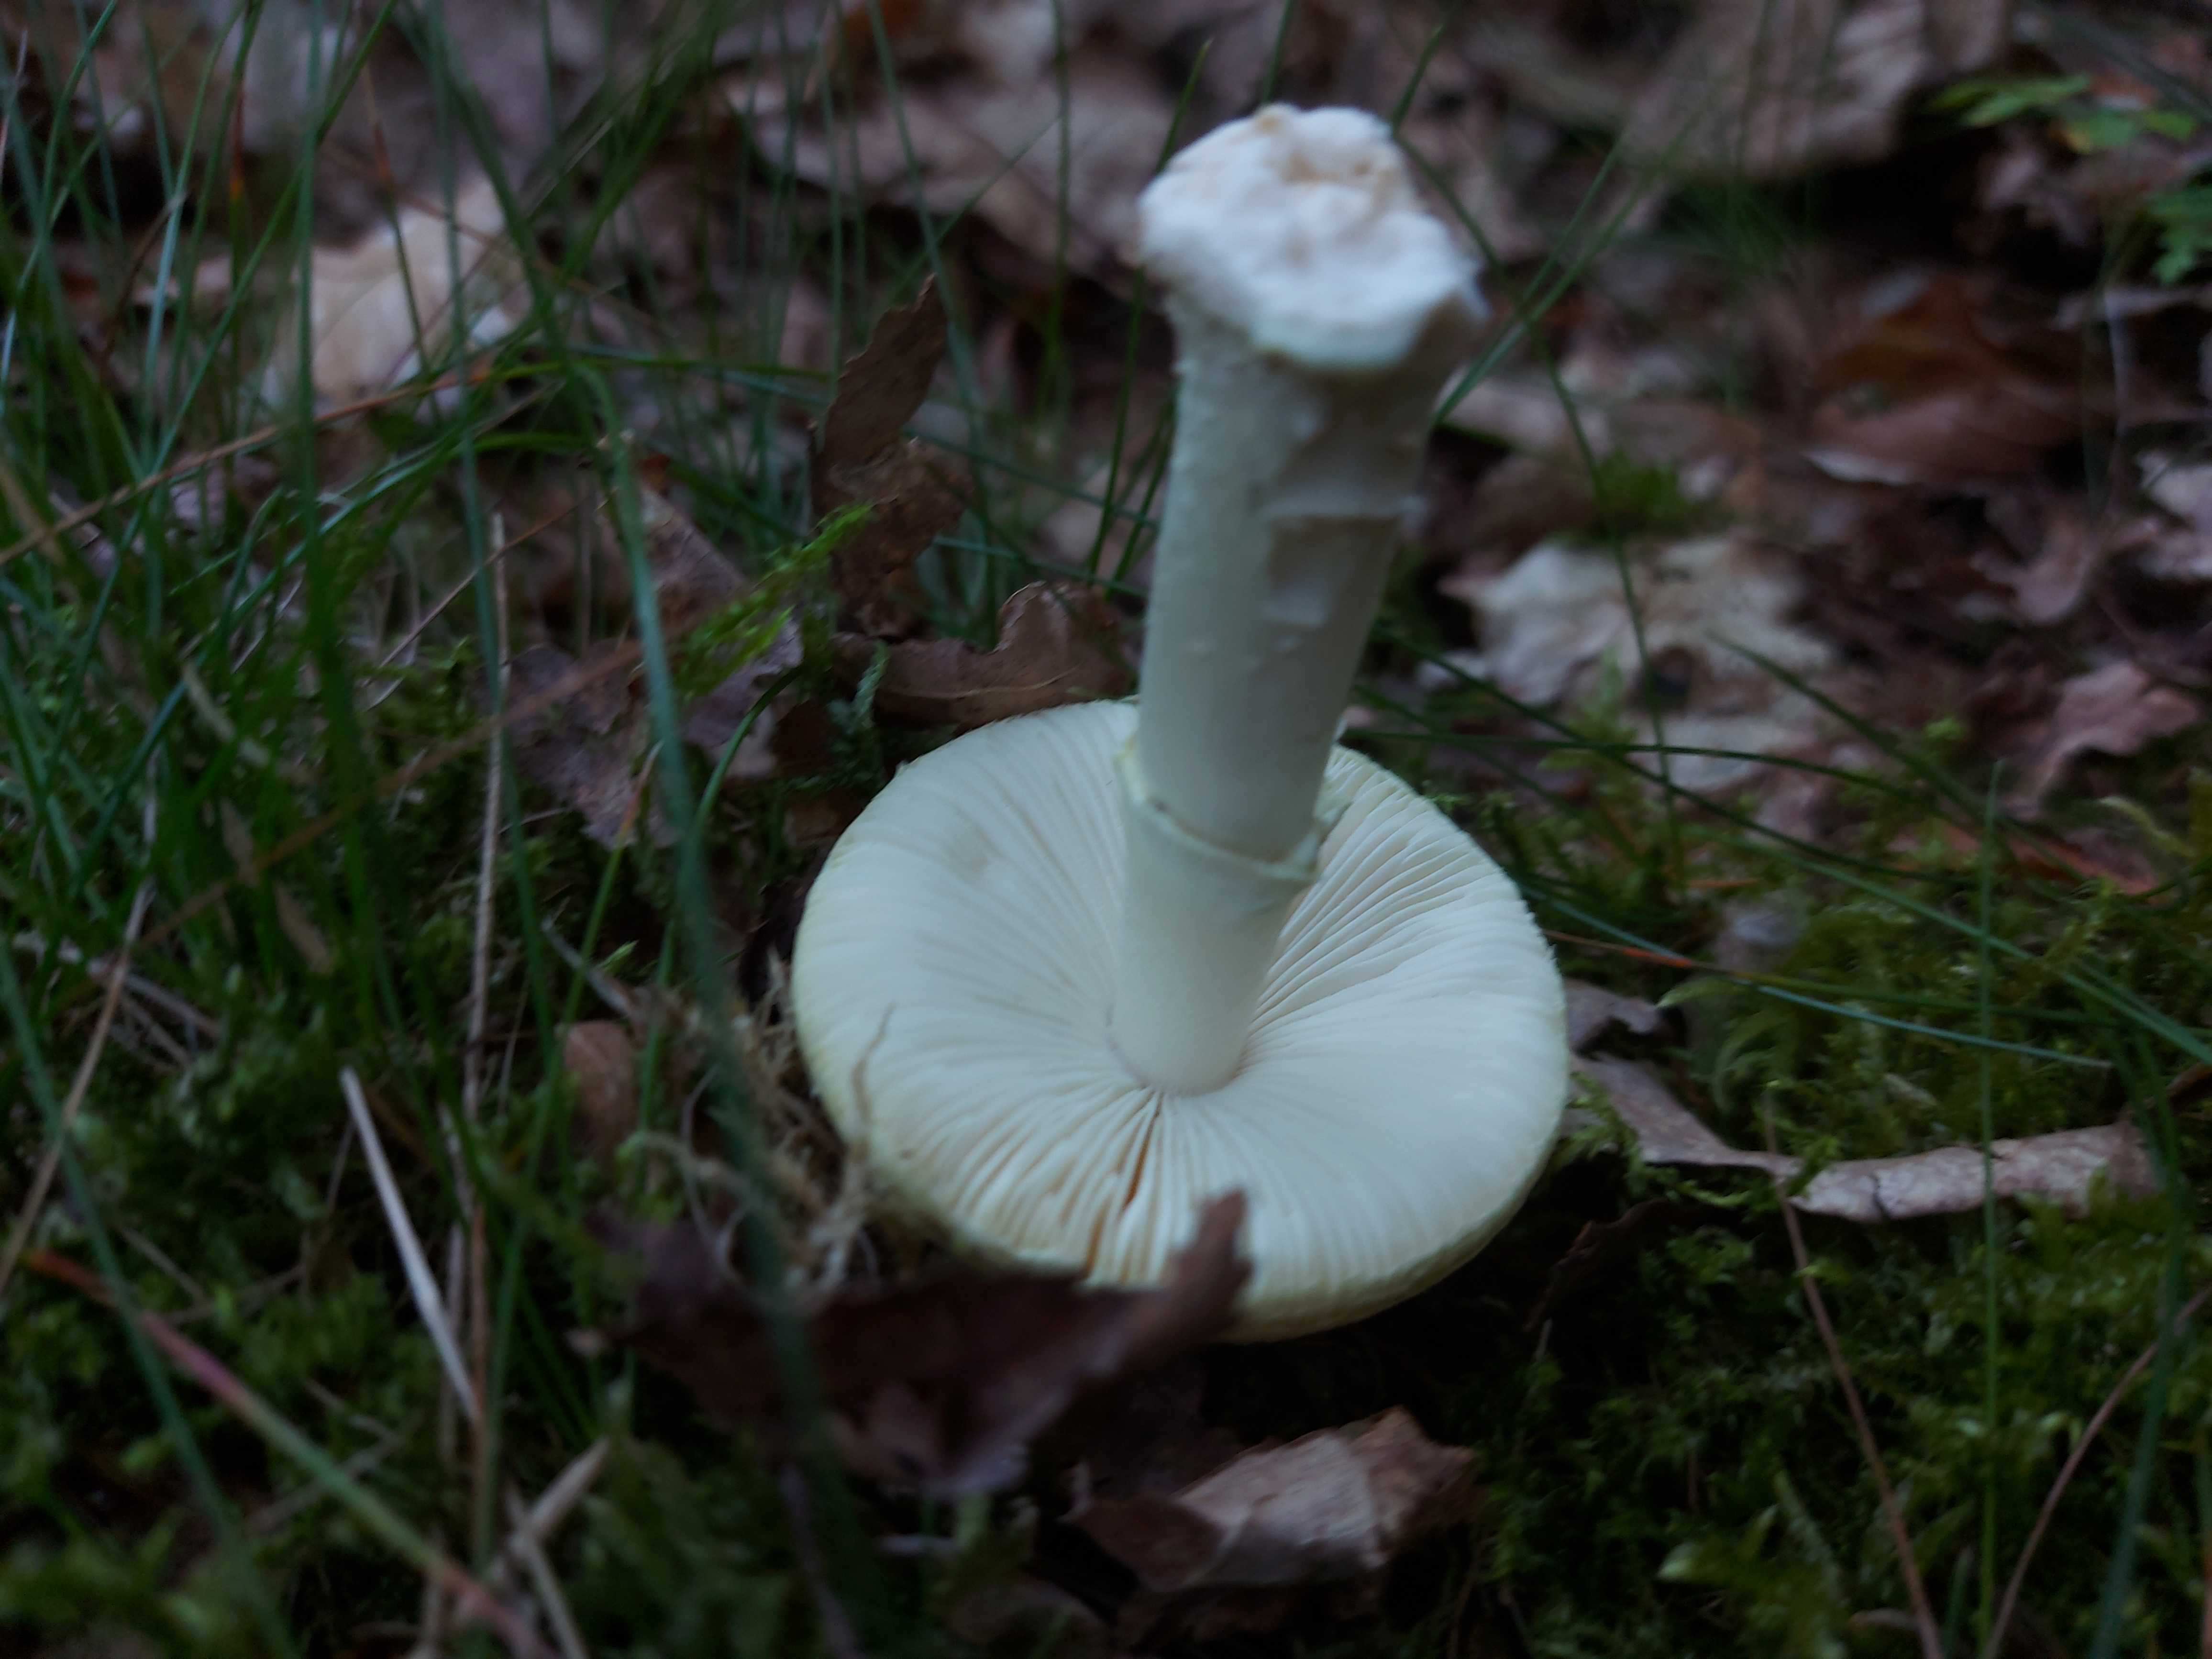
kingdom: Fungi
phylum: Basidiomycota
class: Agaricomycetes
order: Agaricales
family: Amanitaceae
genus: Amanita
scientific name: Amanita phalloides
